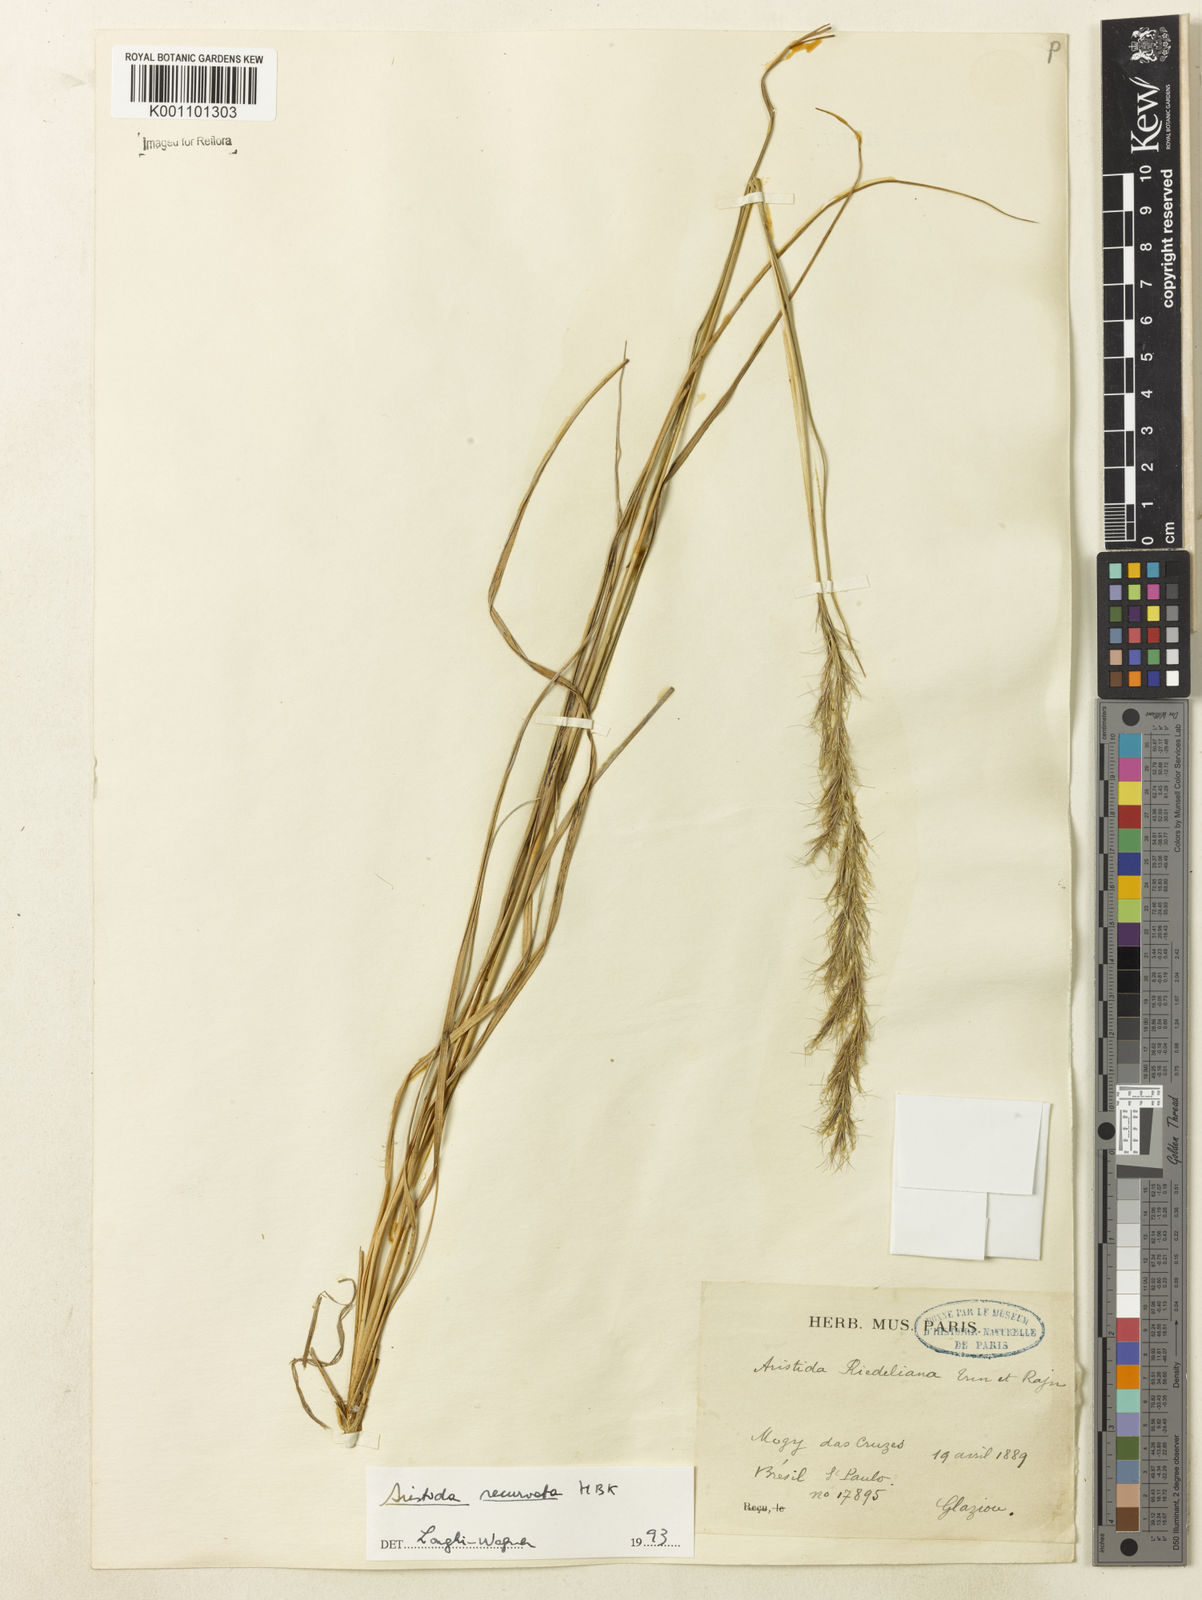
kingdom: Plantae
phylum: Tracheophyta
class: Liliopsida
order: Poales
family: Poaceae
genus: Aristida
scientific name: Aristida recurvata
